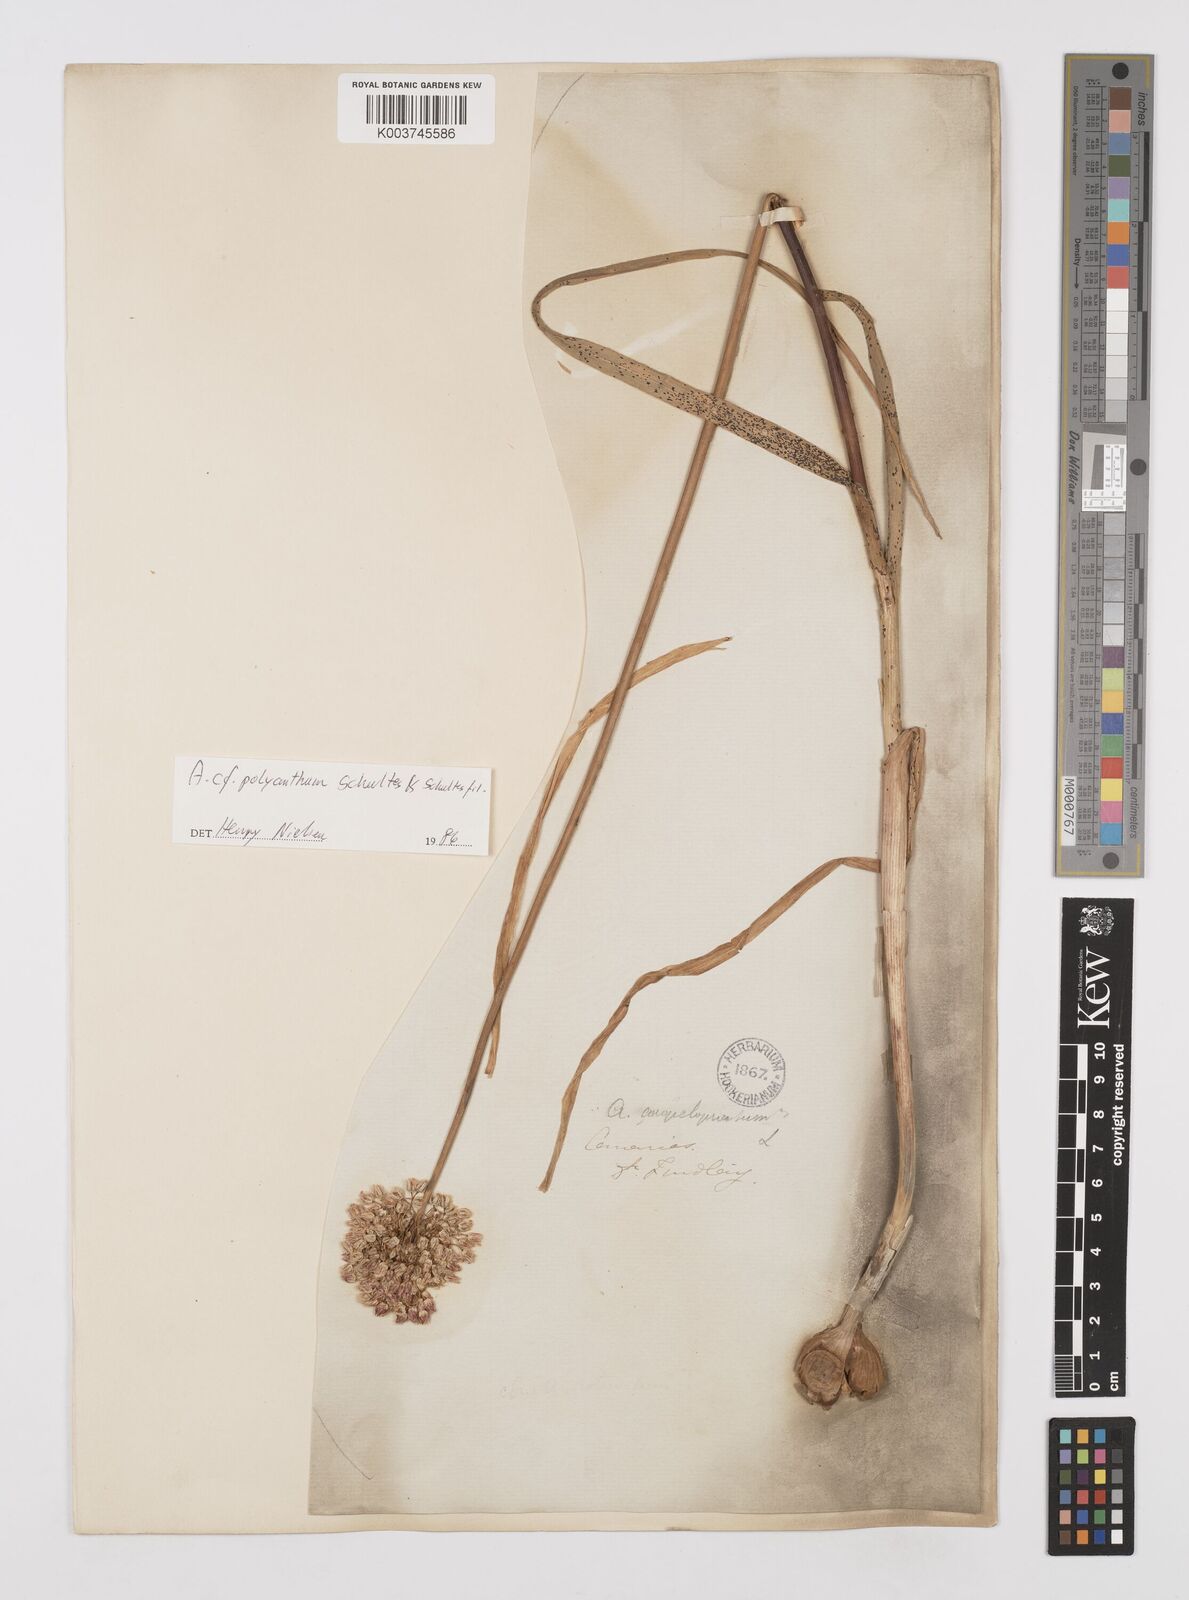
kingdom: Plantae
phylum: Tracheophyta
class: Liliopsida
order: Asparagales
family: Amaryllidaceae
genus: Allium
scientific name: Allium
